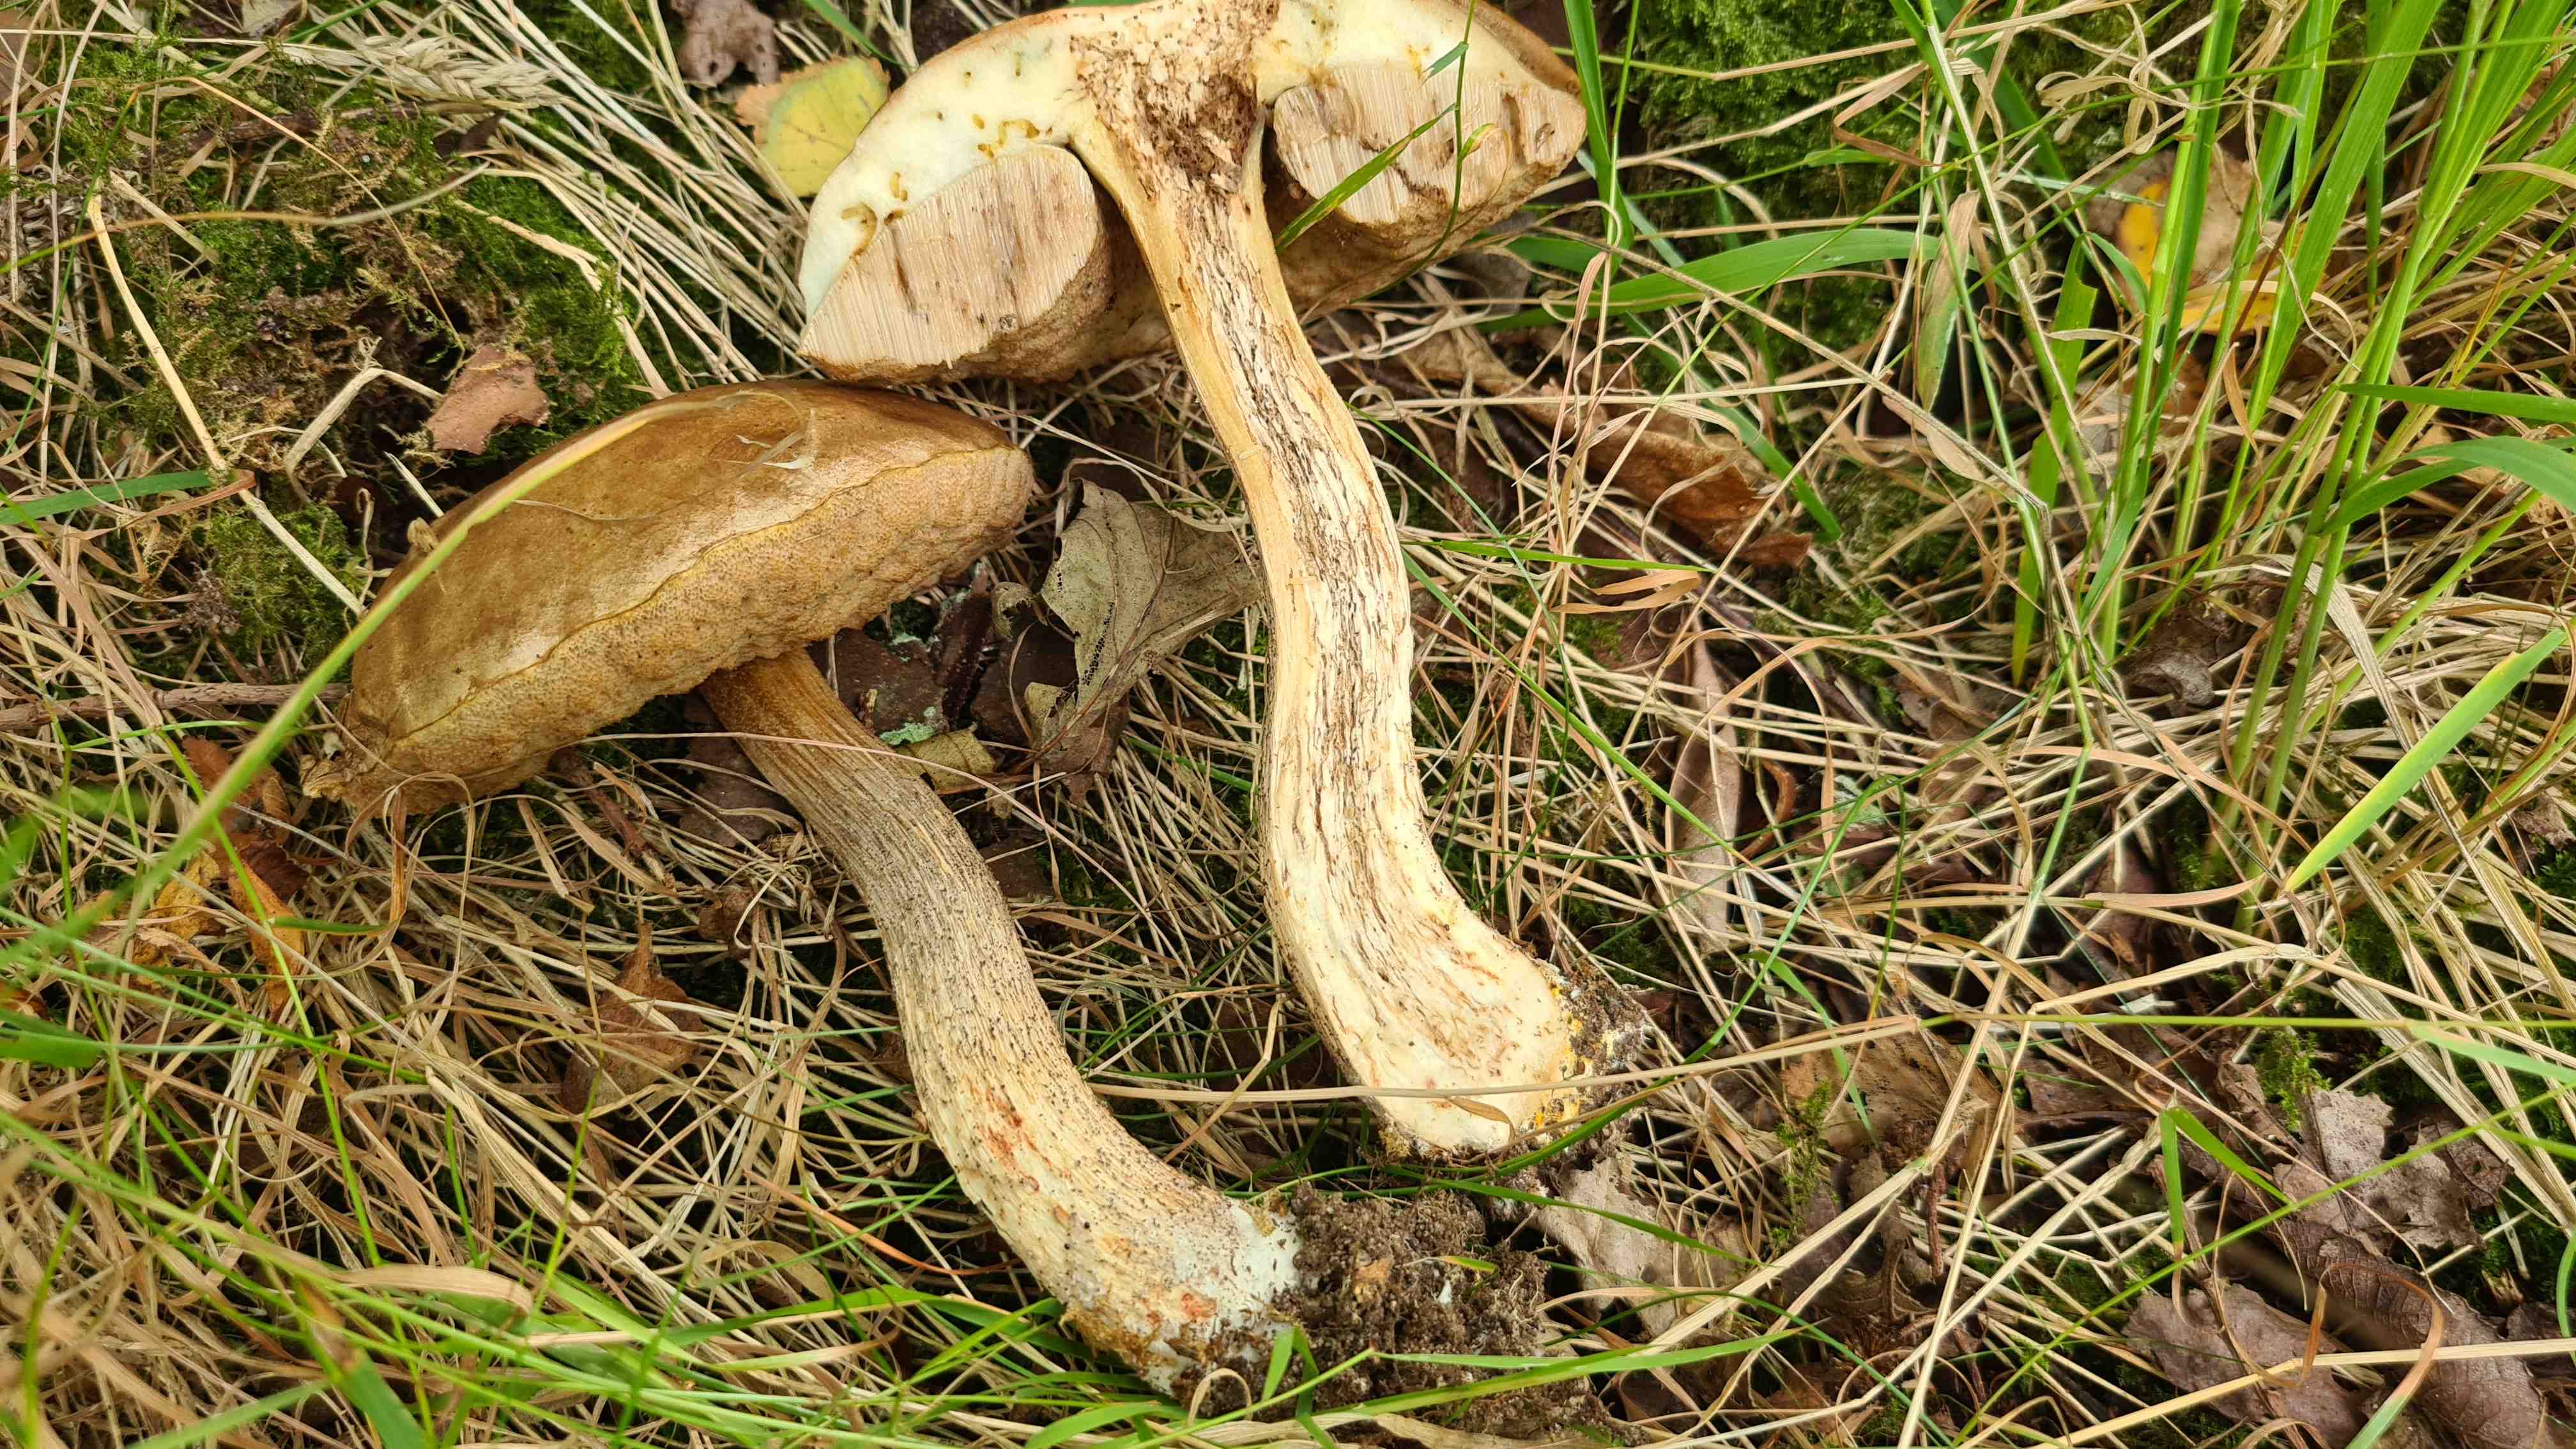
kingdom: Fungi
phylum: Basidiomycota
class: Agaricomycetes
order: Boletales
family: Boletaceae
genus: Leccinum
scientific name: Leccinum scabrum
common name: brun skælrørhat
